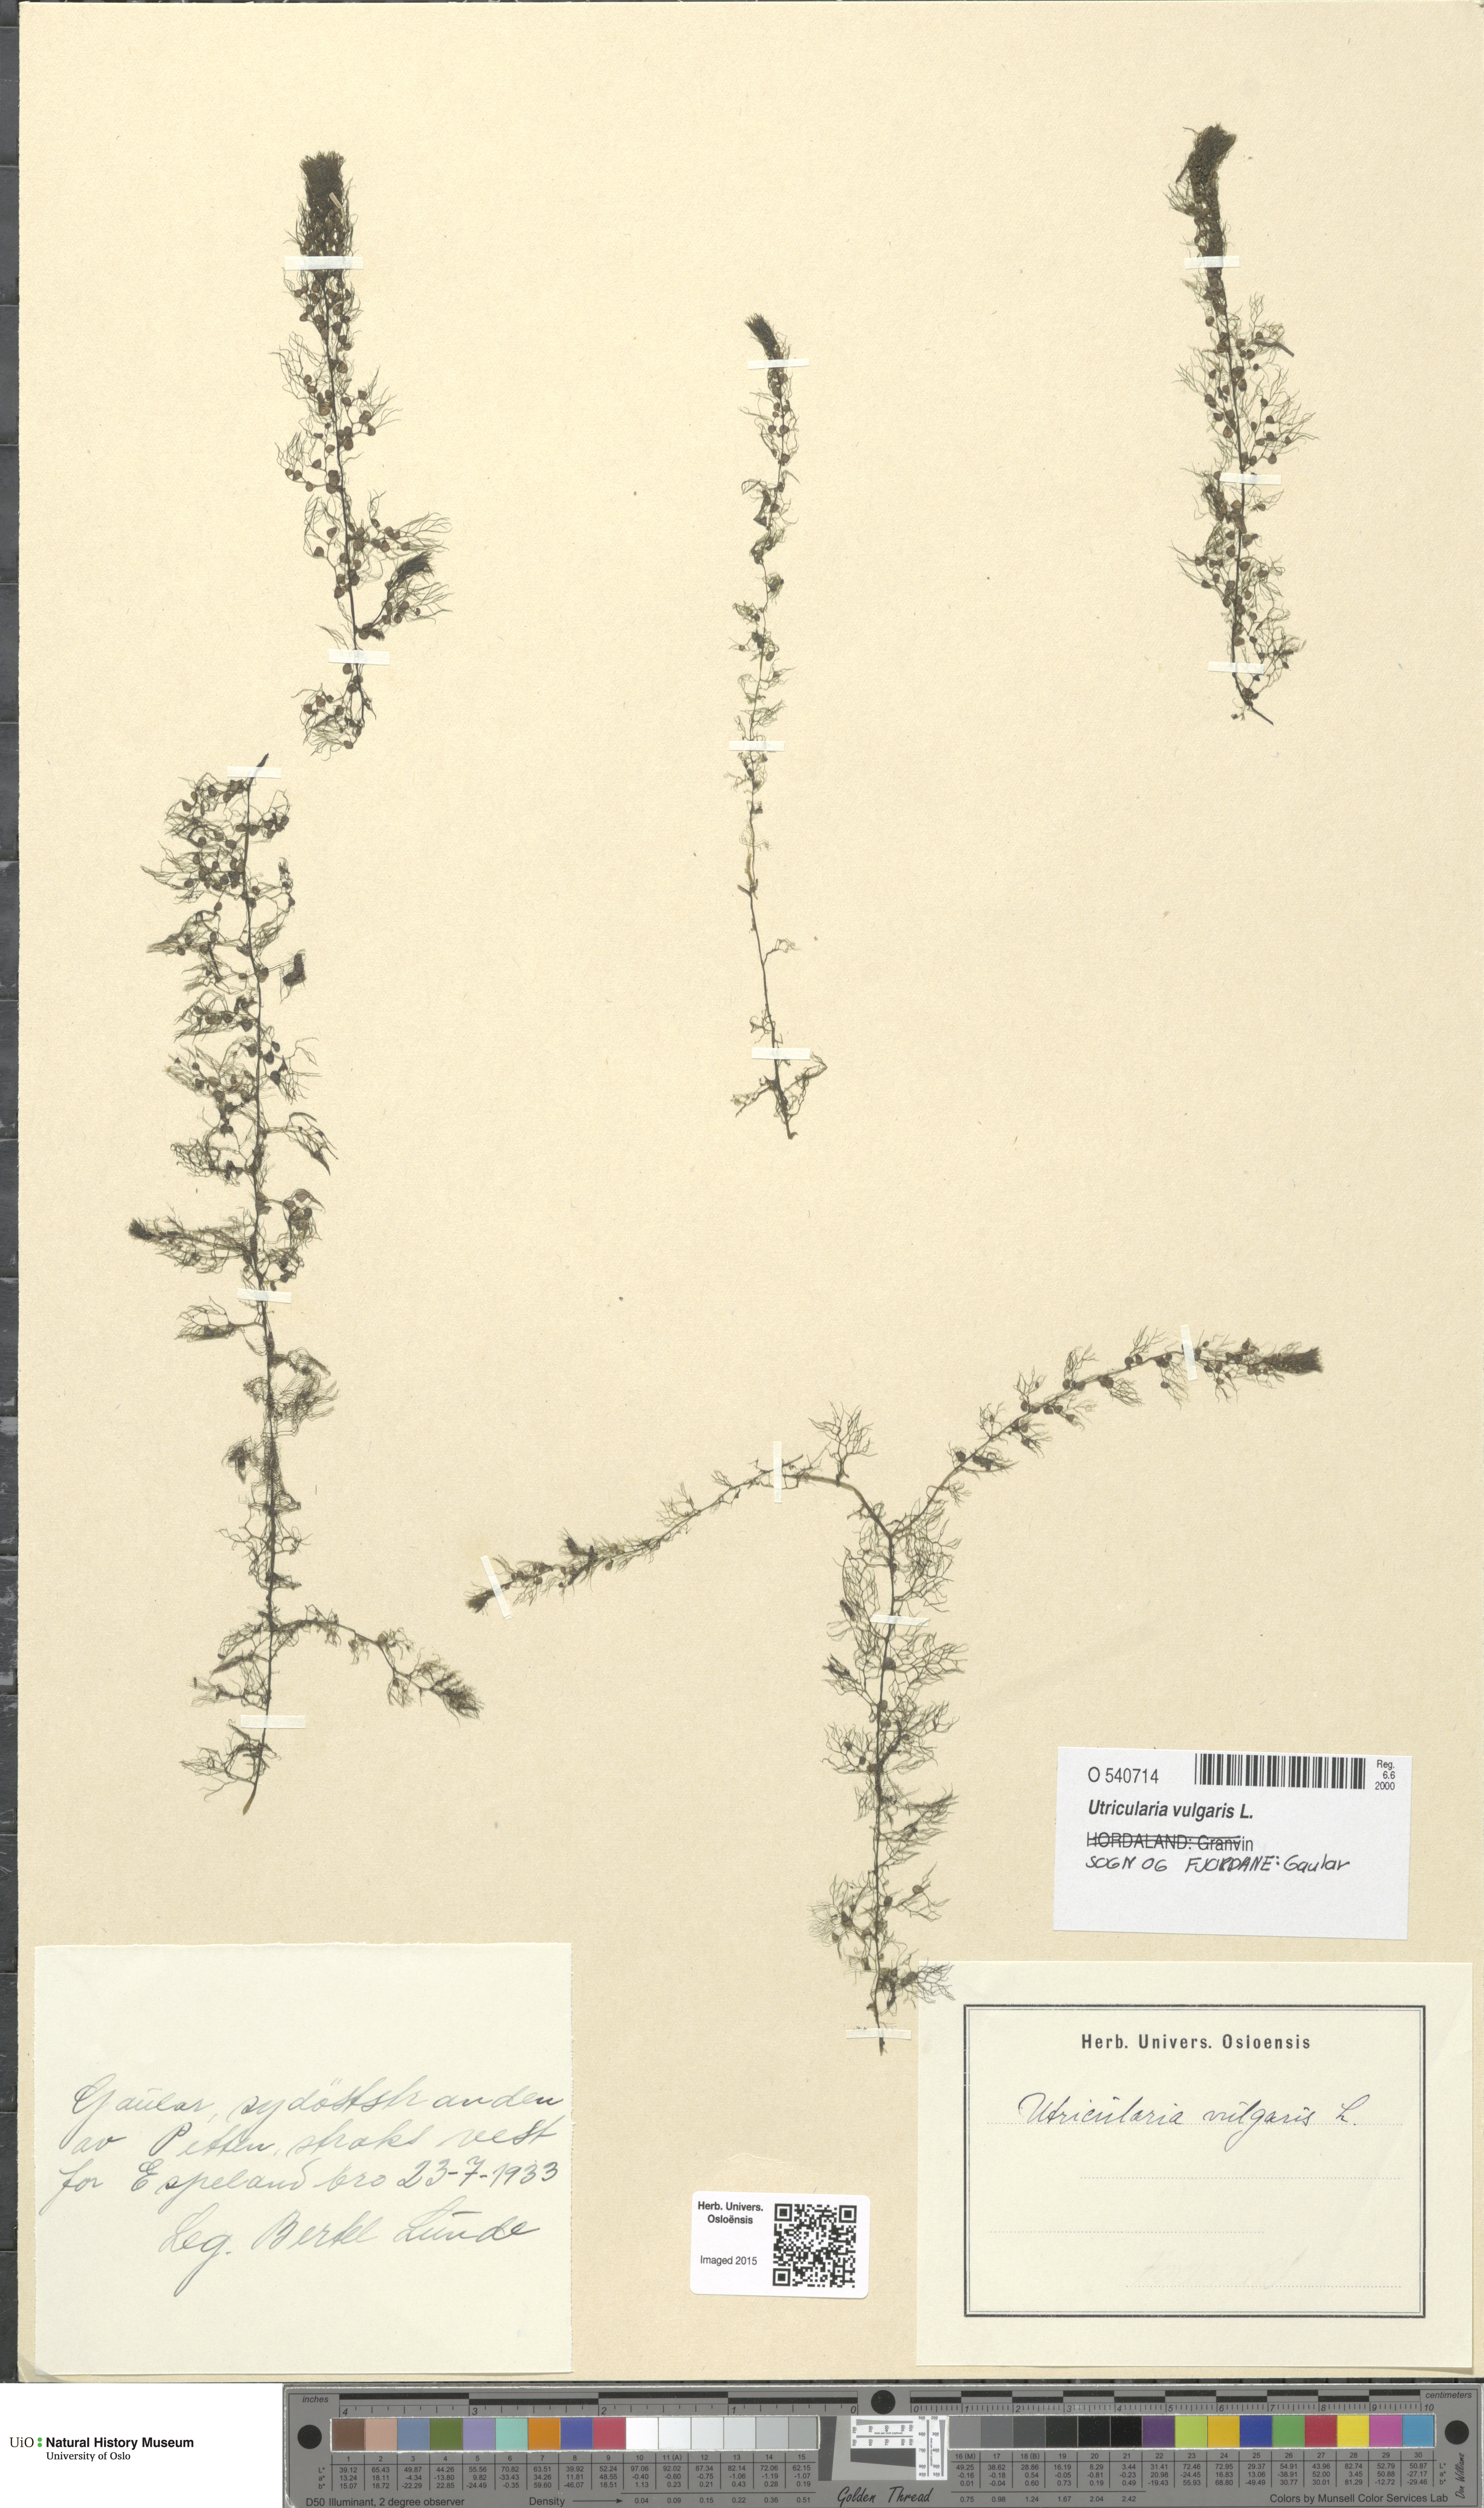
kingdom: Plantae
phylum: Tracheophyta
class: Magnoliopsida
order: Lamiales
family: Lentibulariaceae
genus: Utricularia
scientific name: Utricularia vulgaris
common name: Greater bladderwort
